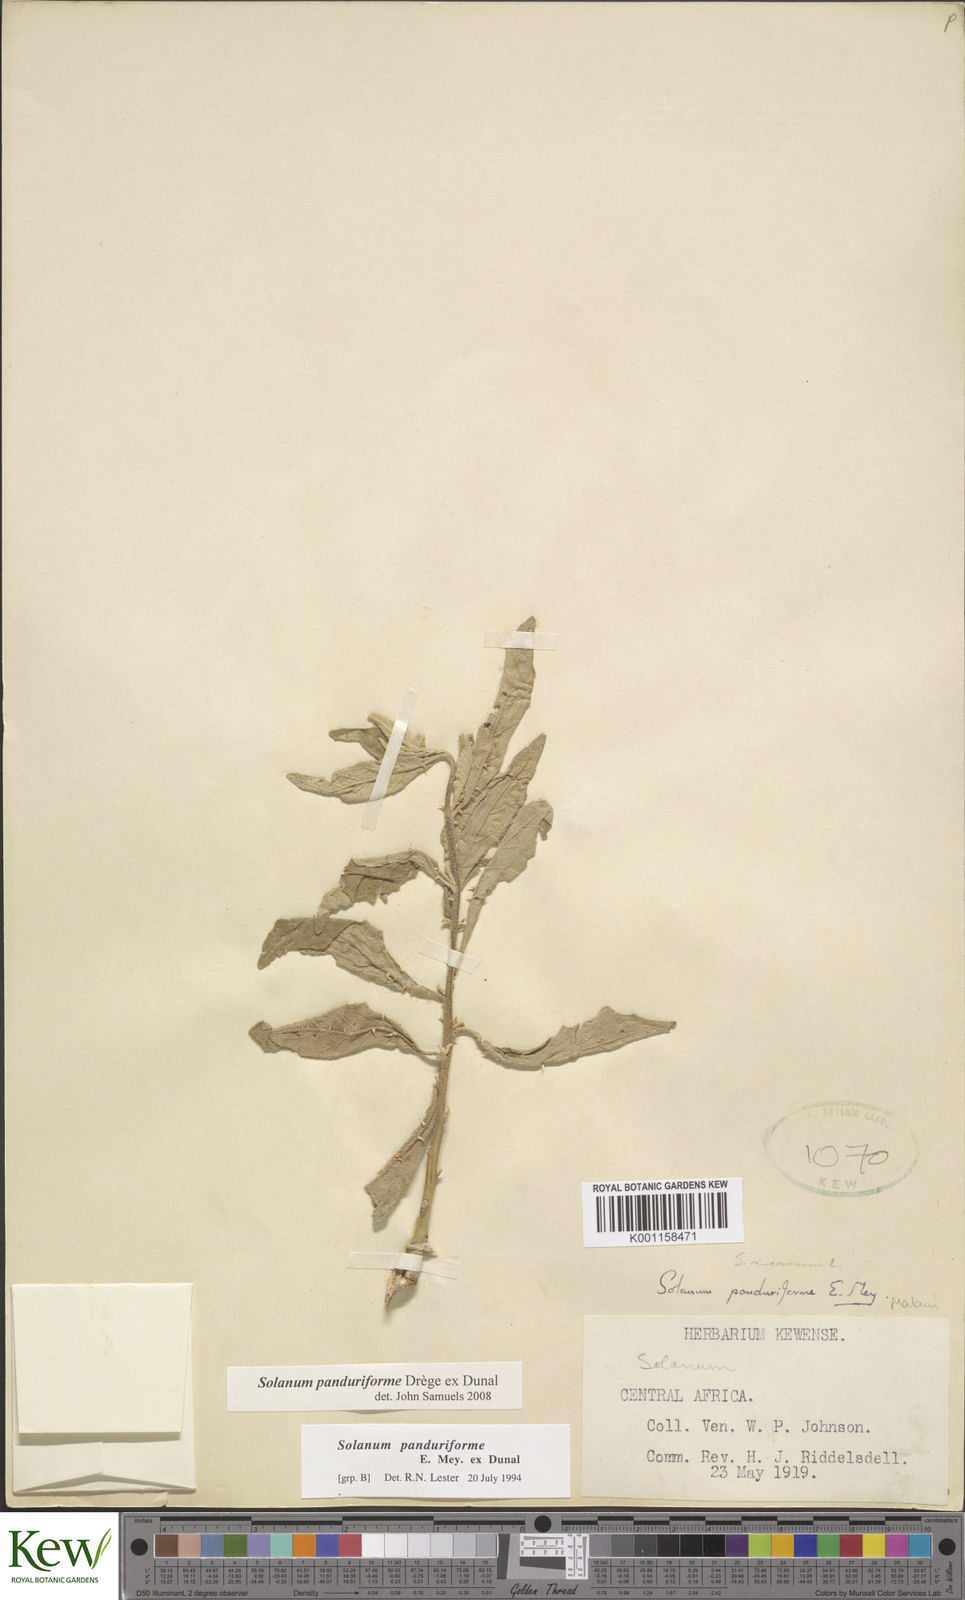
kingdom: Plantae
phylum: Tracheophyta
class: Magnoliopsida
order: Solanales
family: Solanaceae
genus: Solanum
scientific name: Solanum campylacanthum
